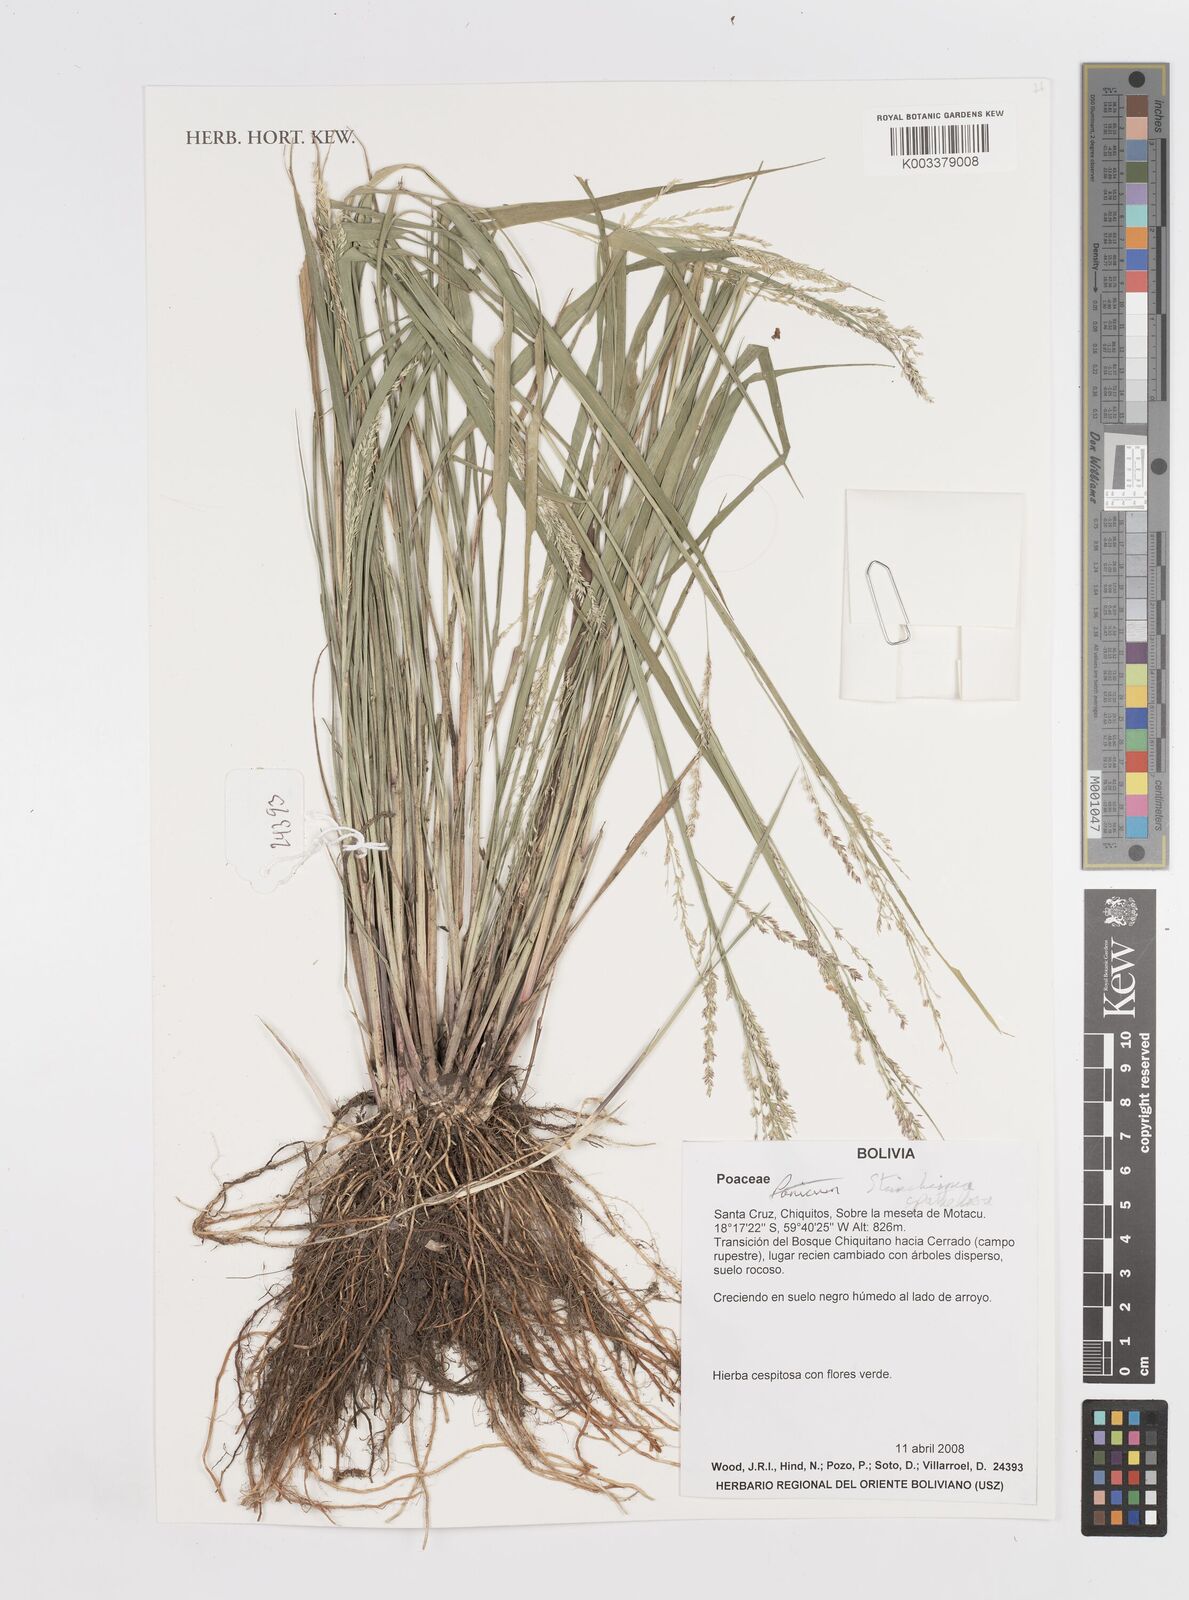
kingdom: Plantae
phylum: Tracheophyta
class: Liliopsida
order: Poales
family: Poaceae
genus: Steinchisma
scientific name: Steinchisma spathellosum
